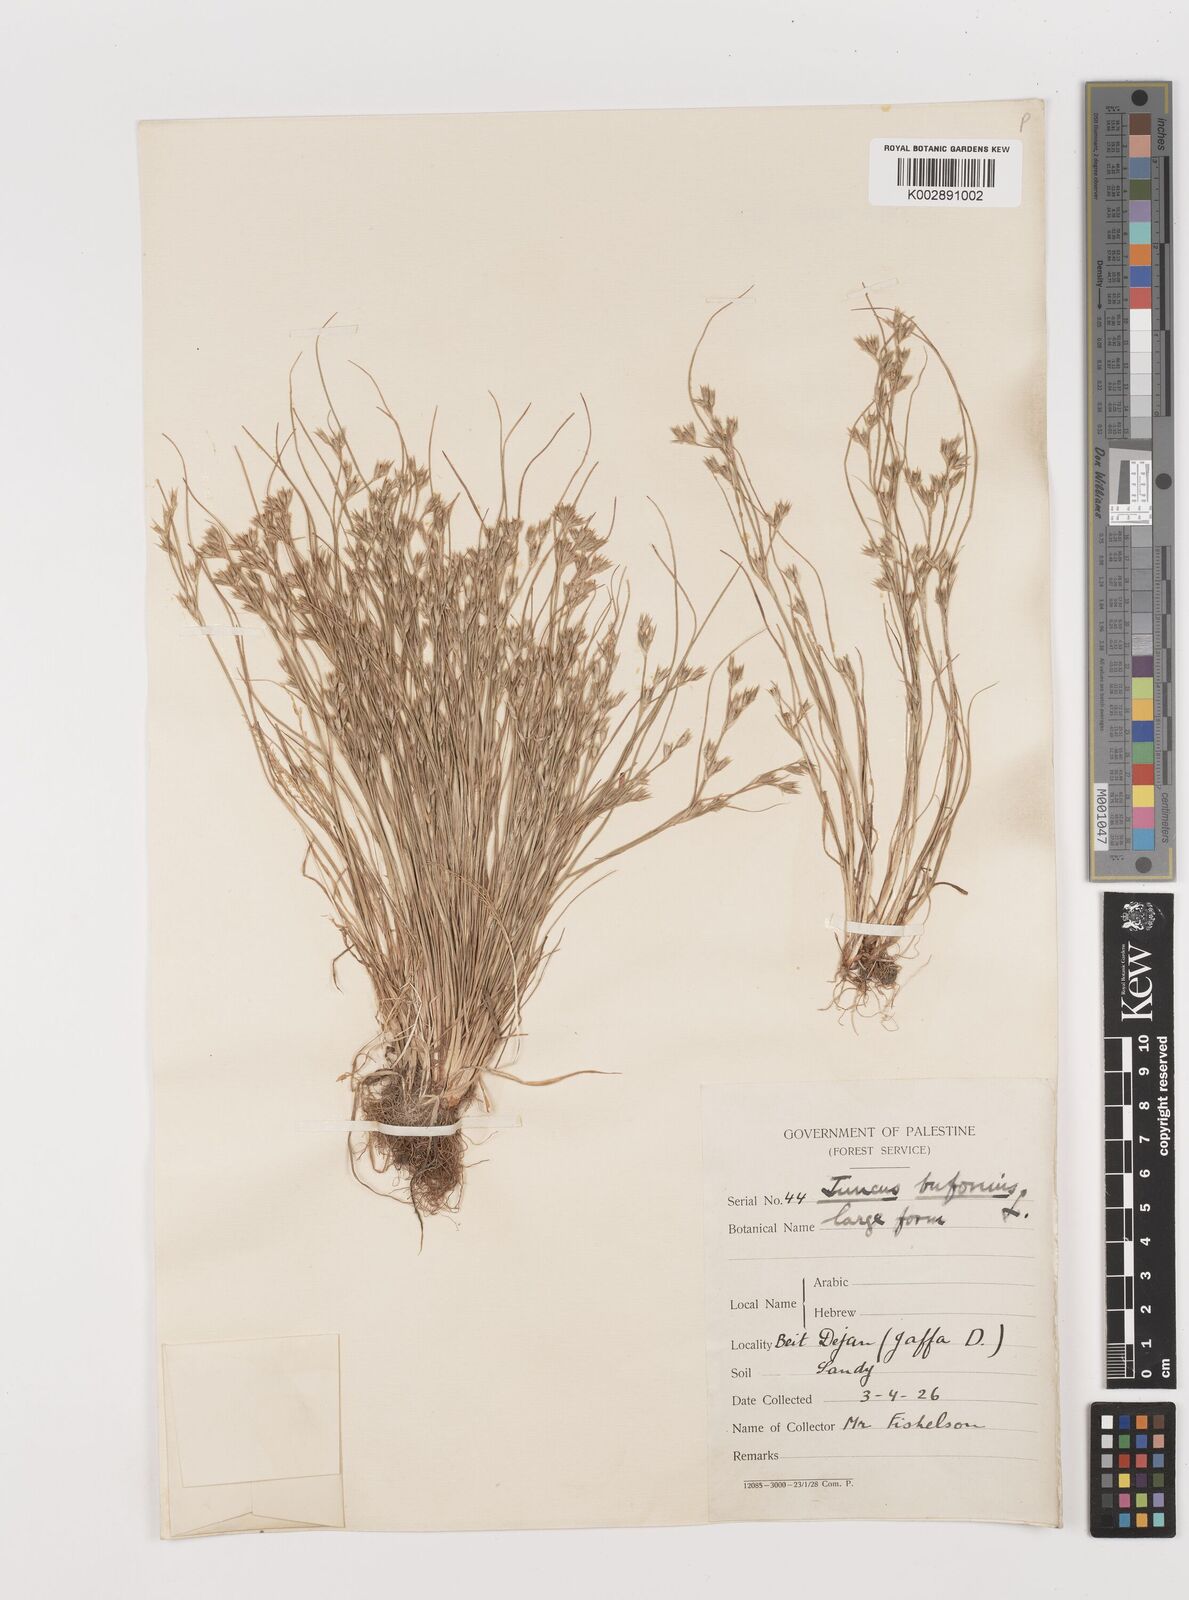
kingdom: Plantae
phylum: Tracheophyta
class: Liliopsida
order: Poales
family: Juncaceae
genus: Juncus
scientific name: Juncus bufonius
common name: Toad rush
